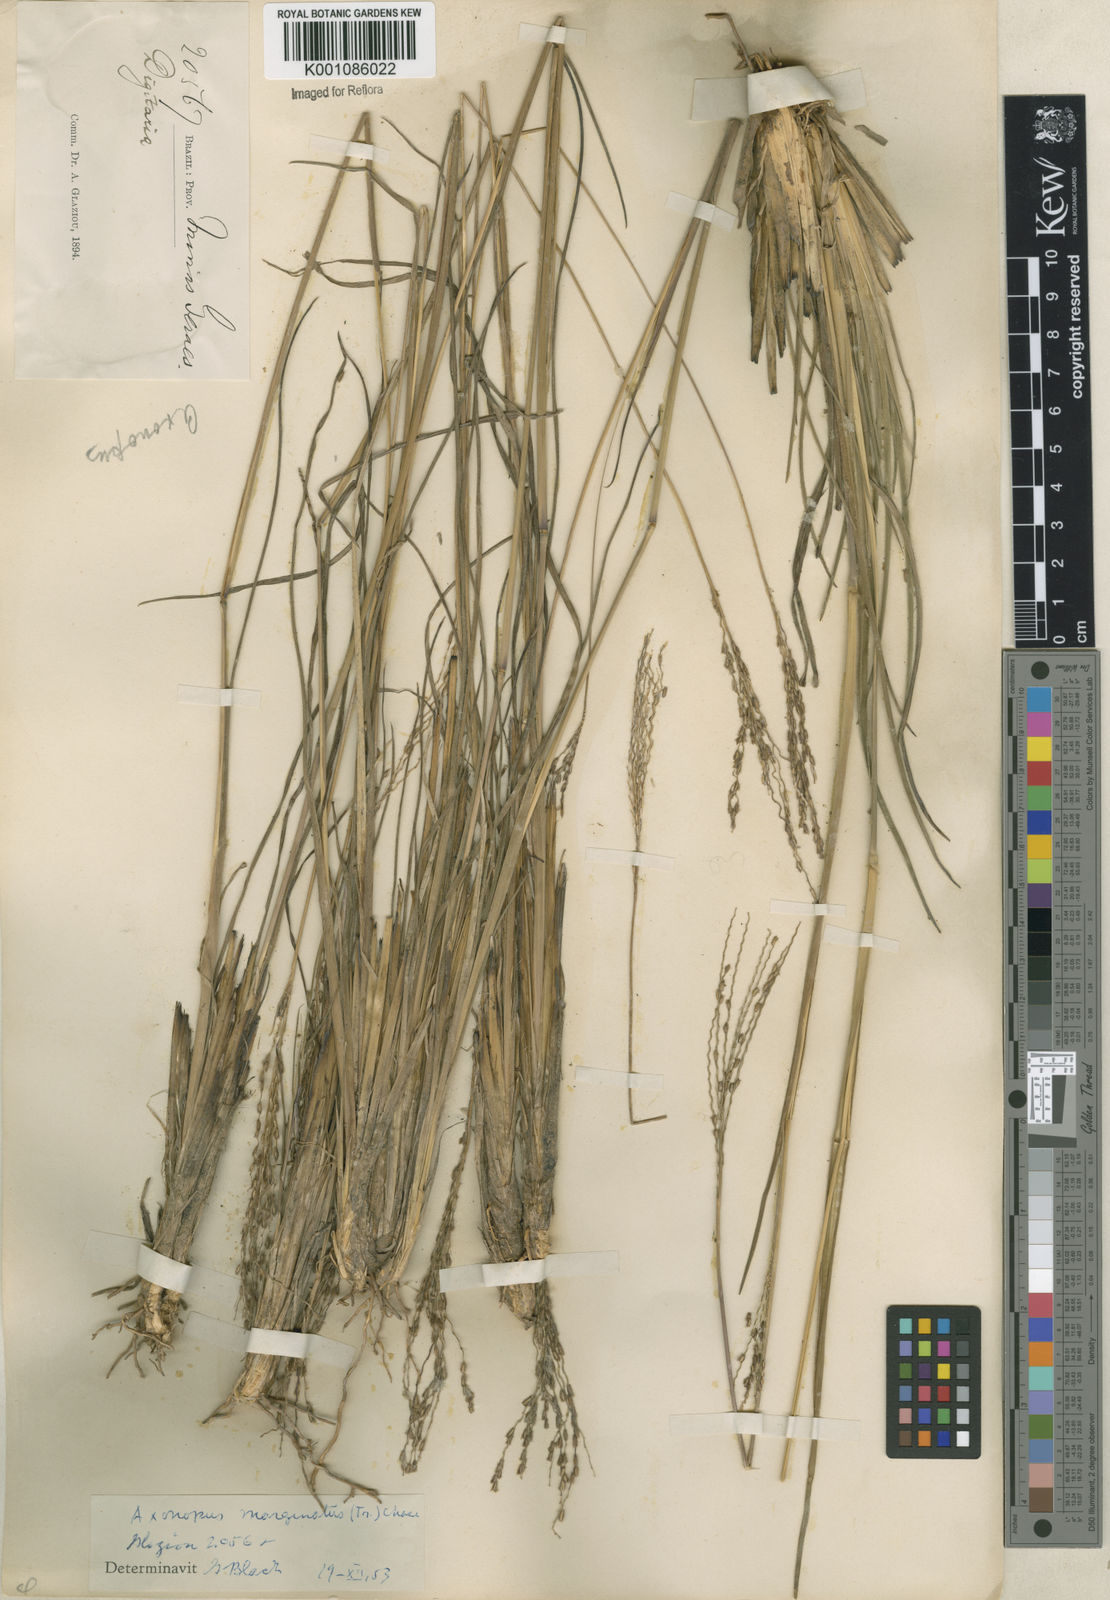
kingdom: Plantae
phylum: Tracheophyta
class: Liliopsida
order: Poales
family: Poaceae
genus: Axonopus
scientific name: Axonopus
